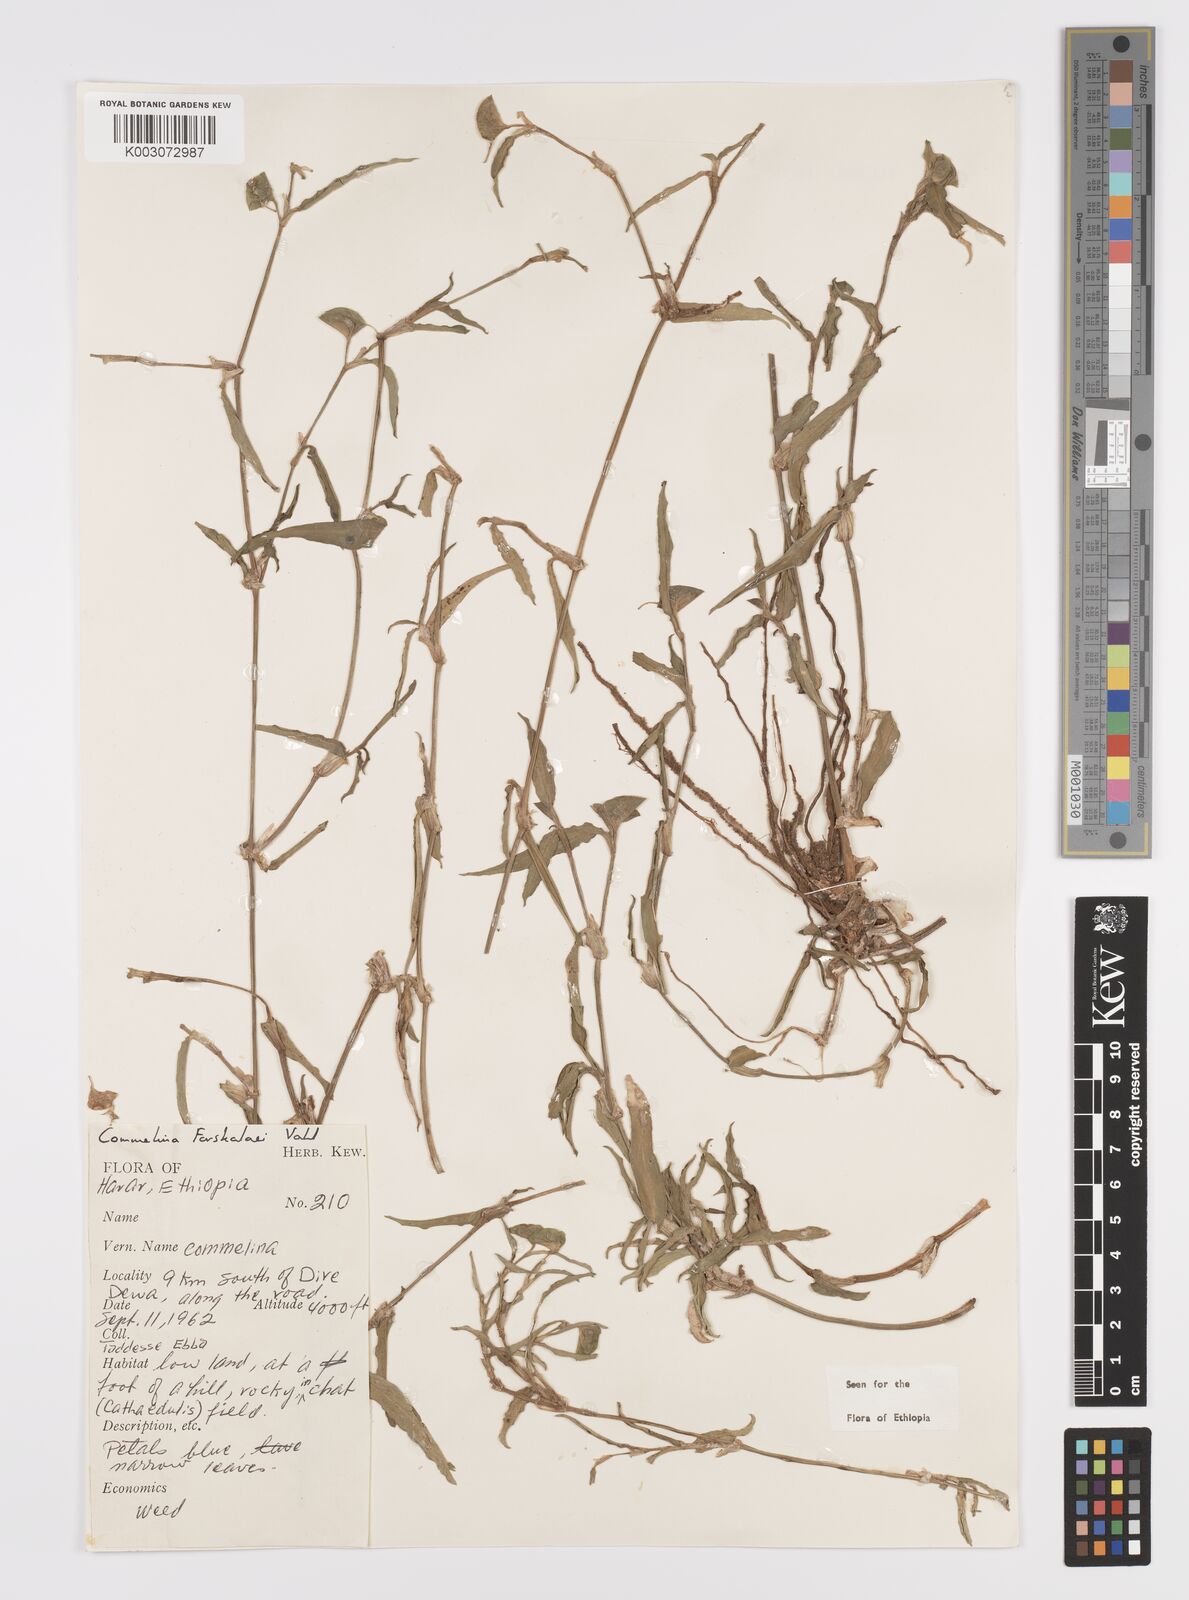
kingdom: Plantae
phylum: Tracheophyta
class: Liliopsida
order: Commelinales
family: Commelinaceae
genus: Commelina
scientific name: Commelina forskaolii
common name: Rat's ear
